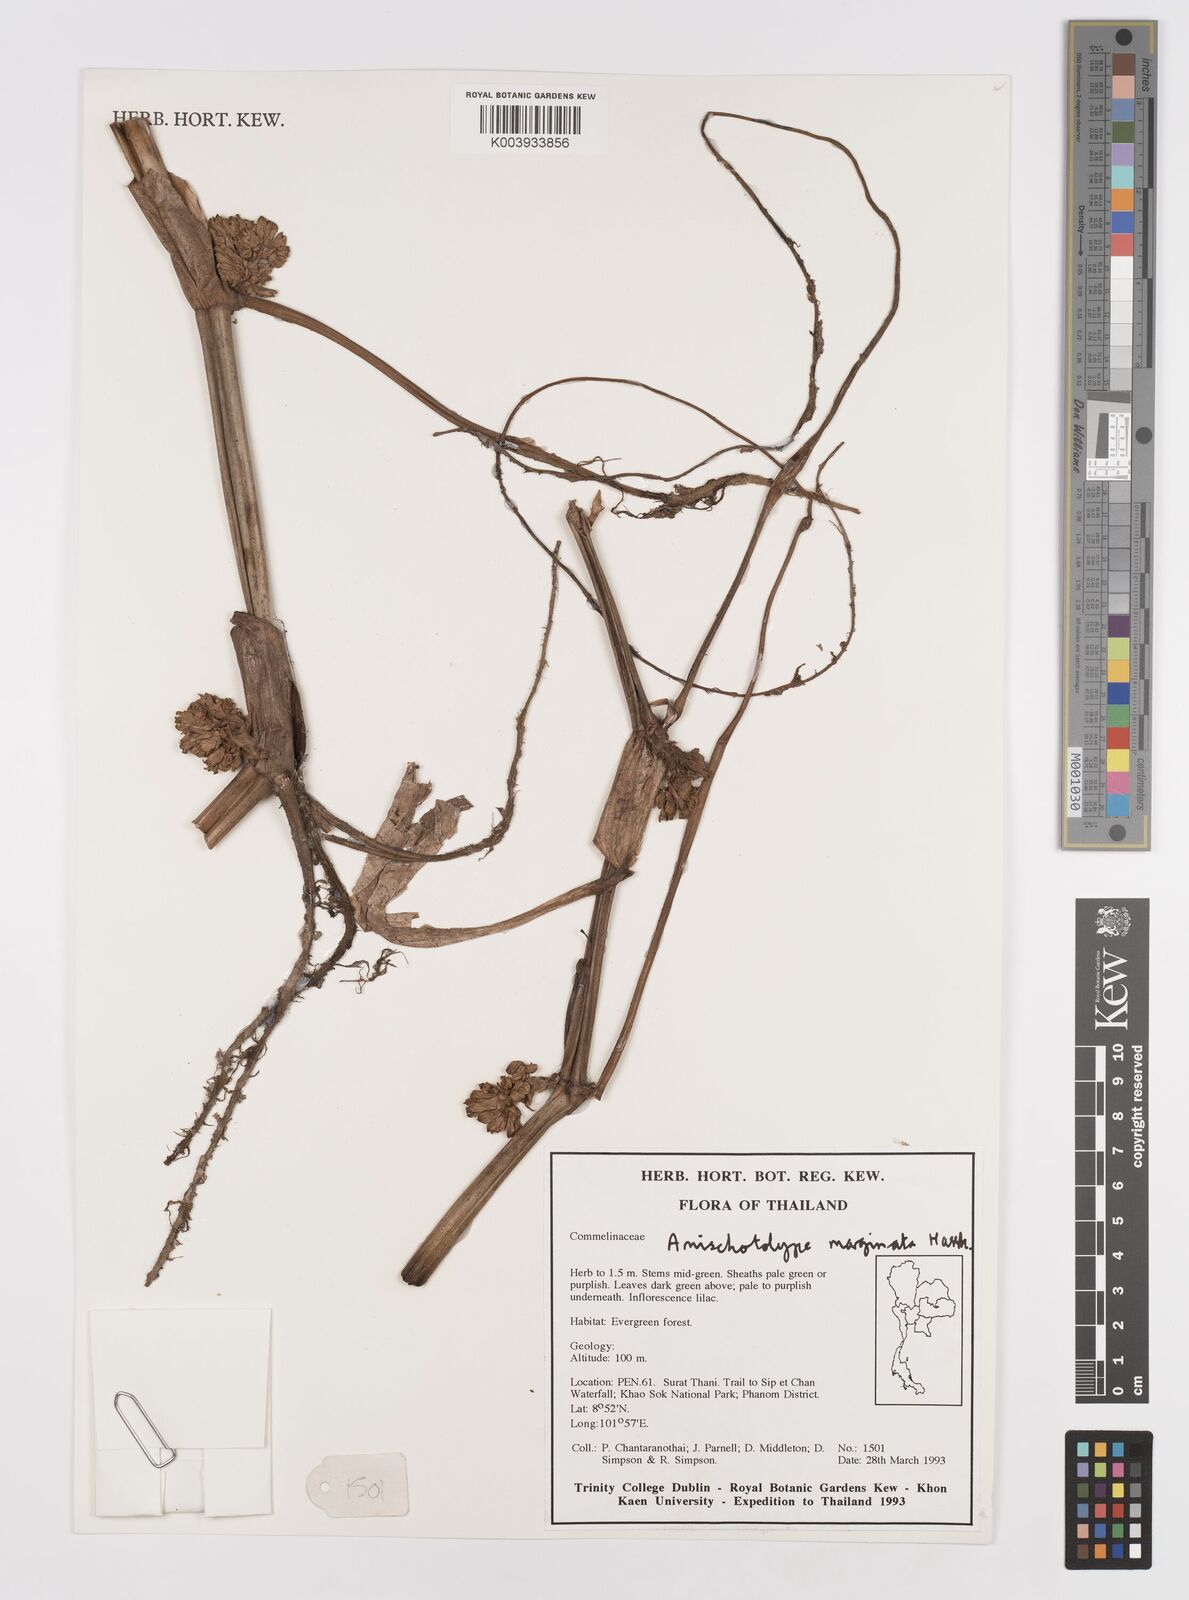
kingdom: Plantae
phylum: Tracheophyta
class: Liliopsida
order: Commelinales
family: Commelinaceae
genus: Amischotolype
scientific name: Amischotolype marginata
